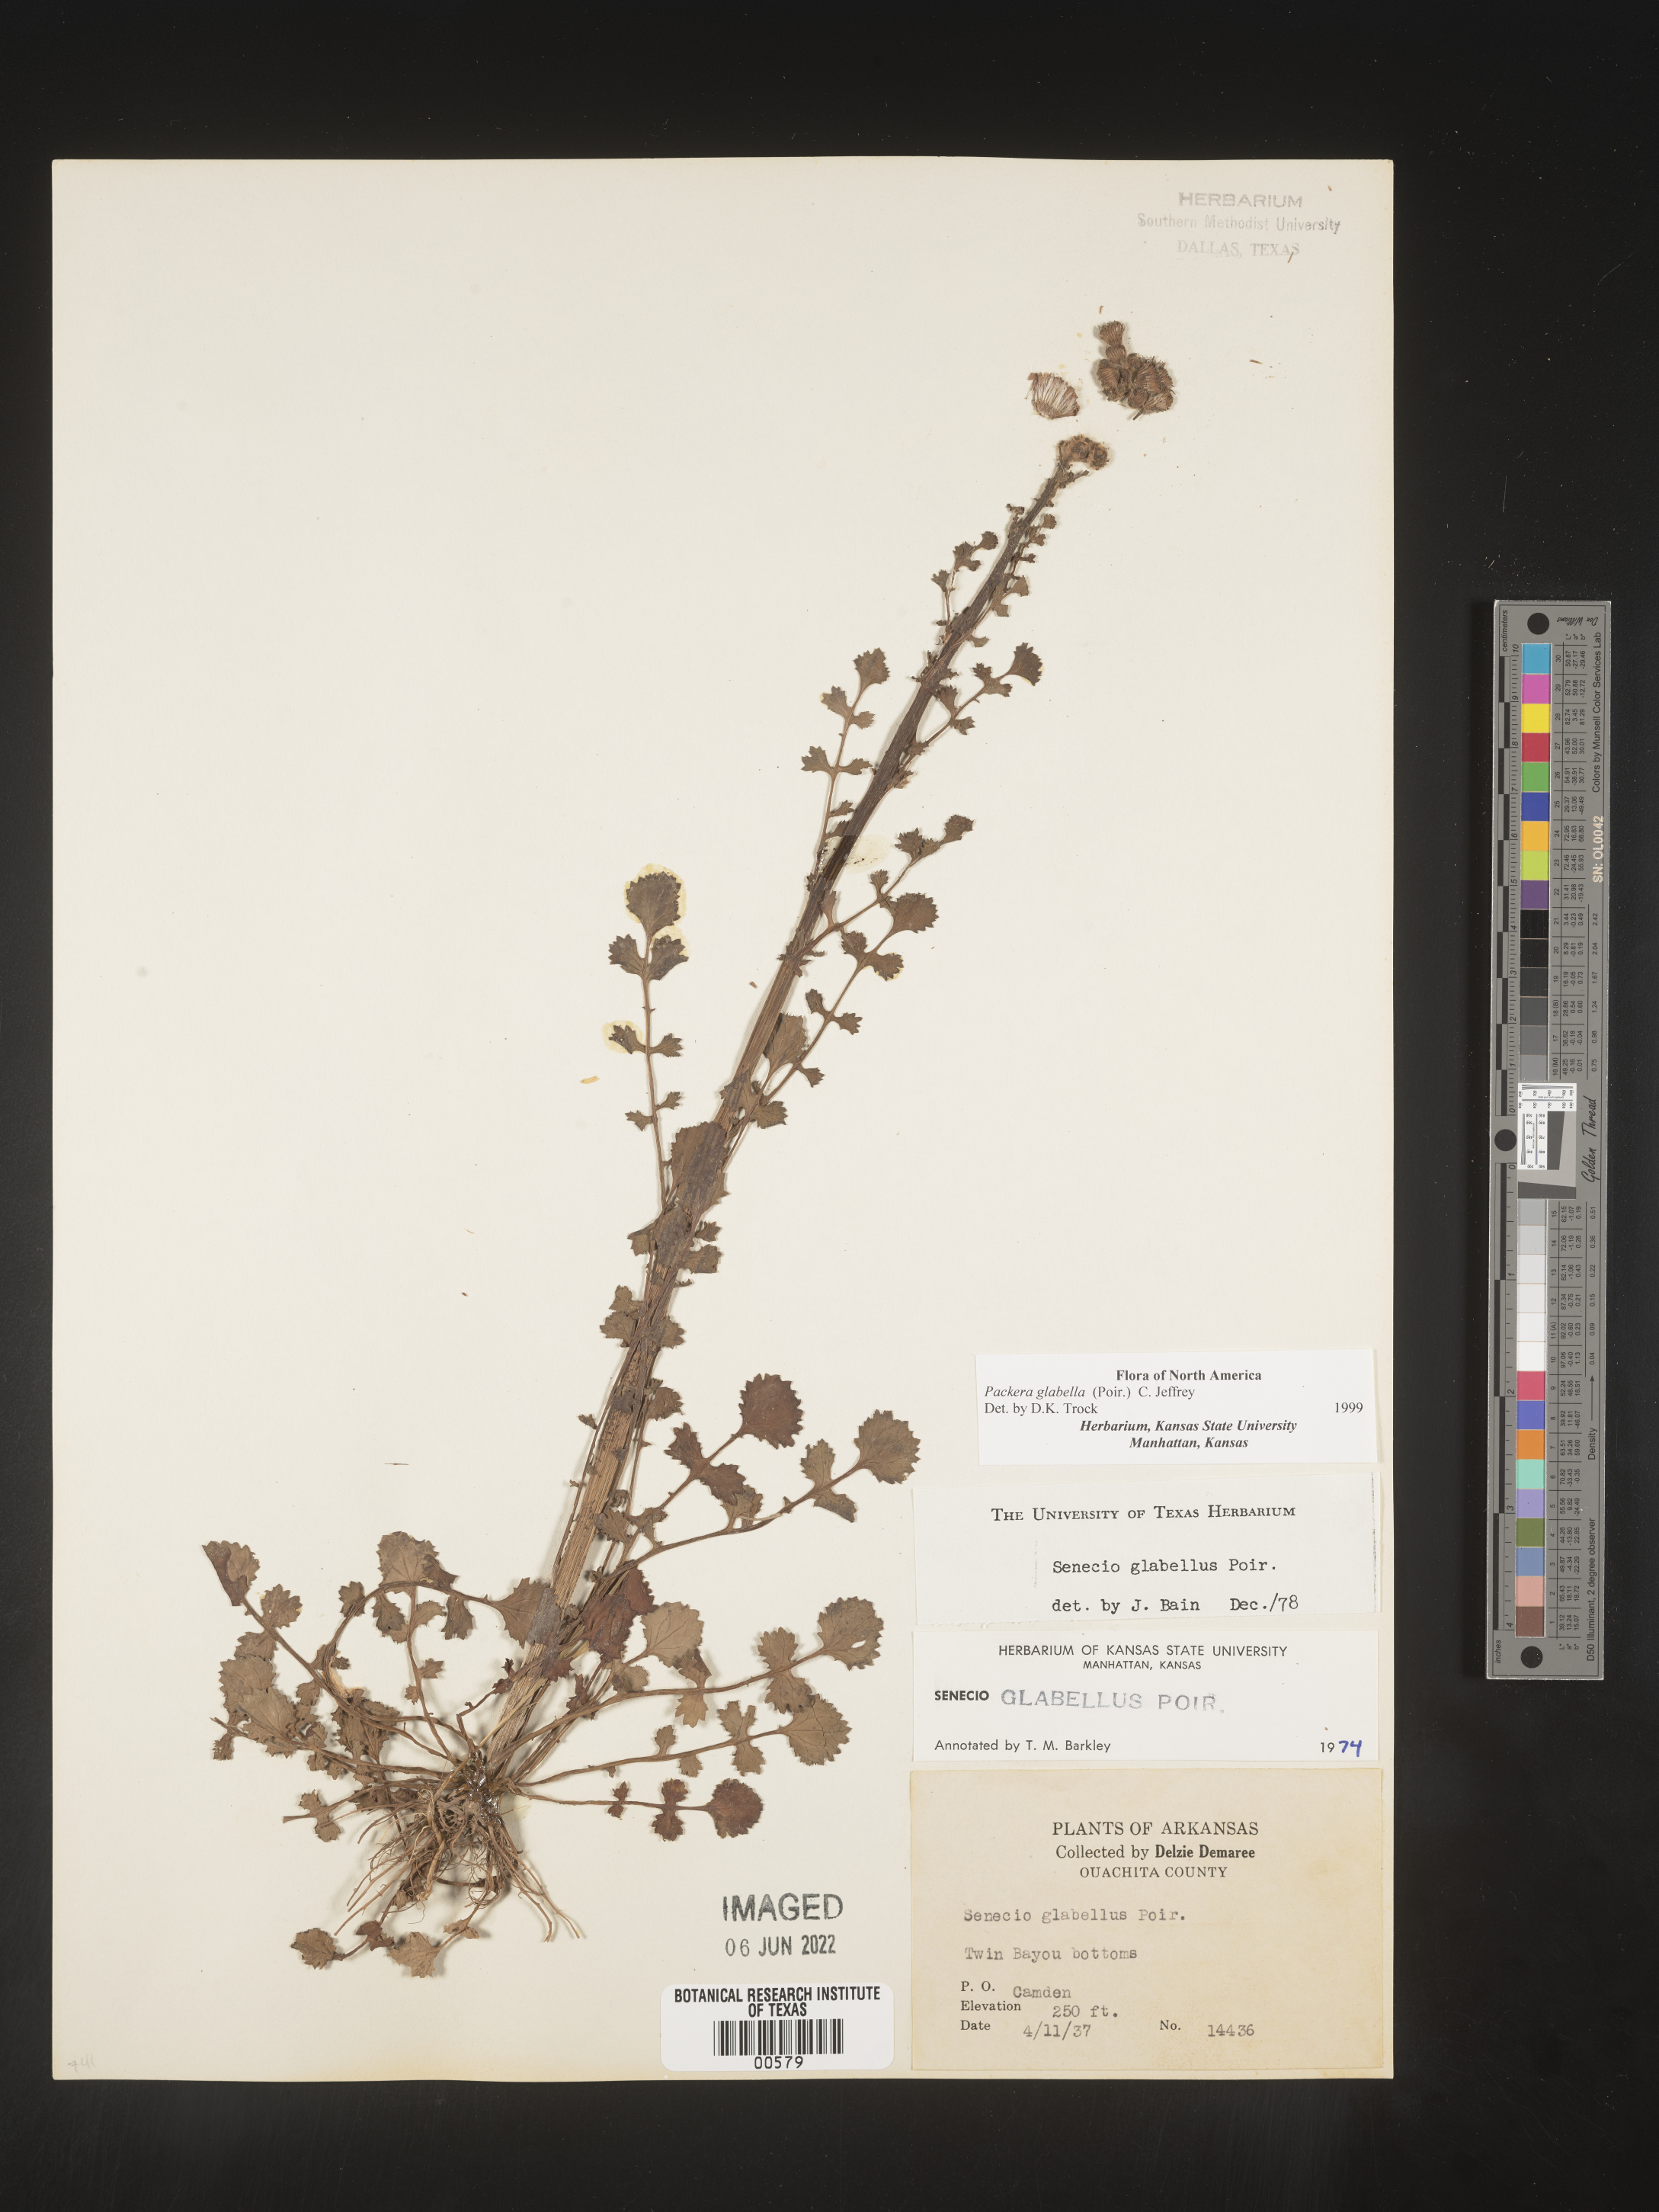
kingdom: Plantae
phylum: Tracheophyta
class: Magnoliopsida
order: Asterales
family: Asteraceae
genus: Packera
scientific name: Packera glabella
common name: Butterweed
